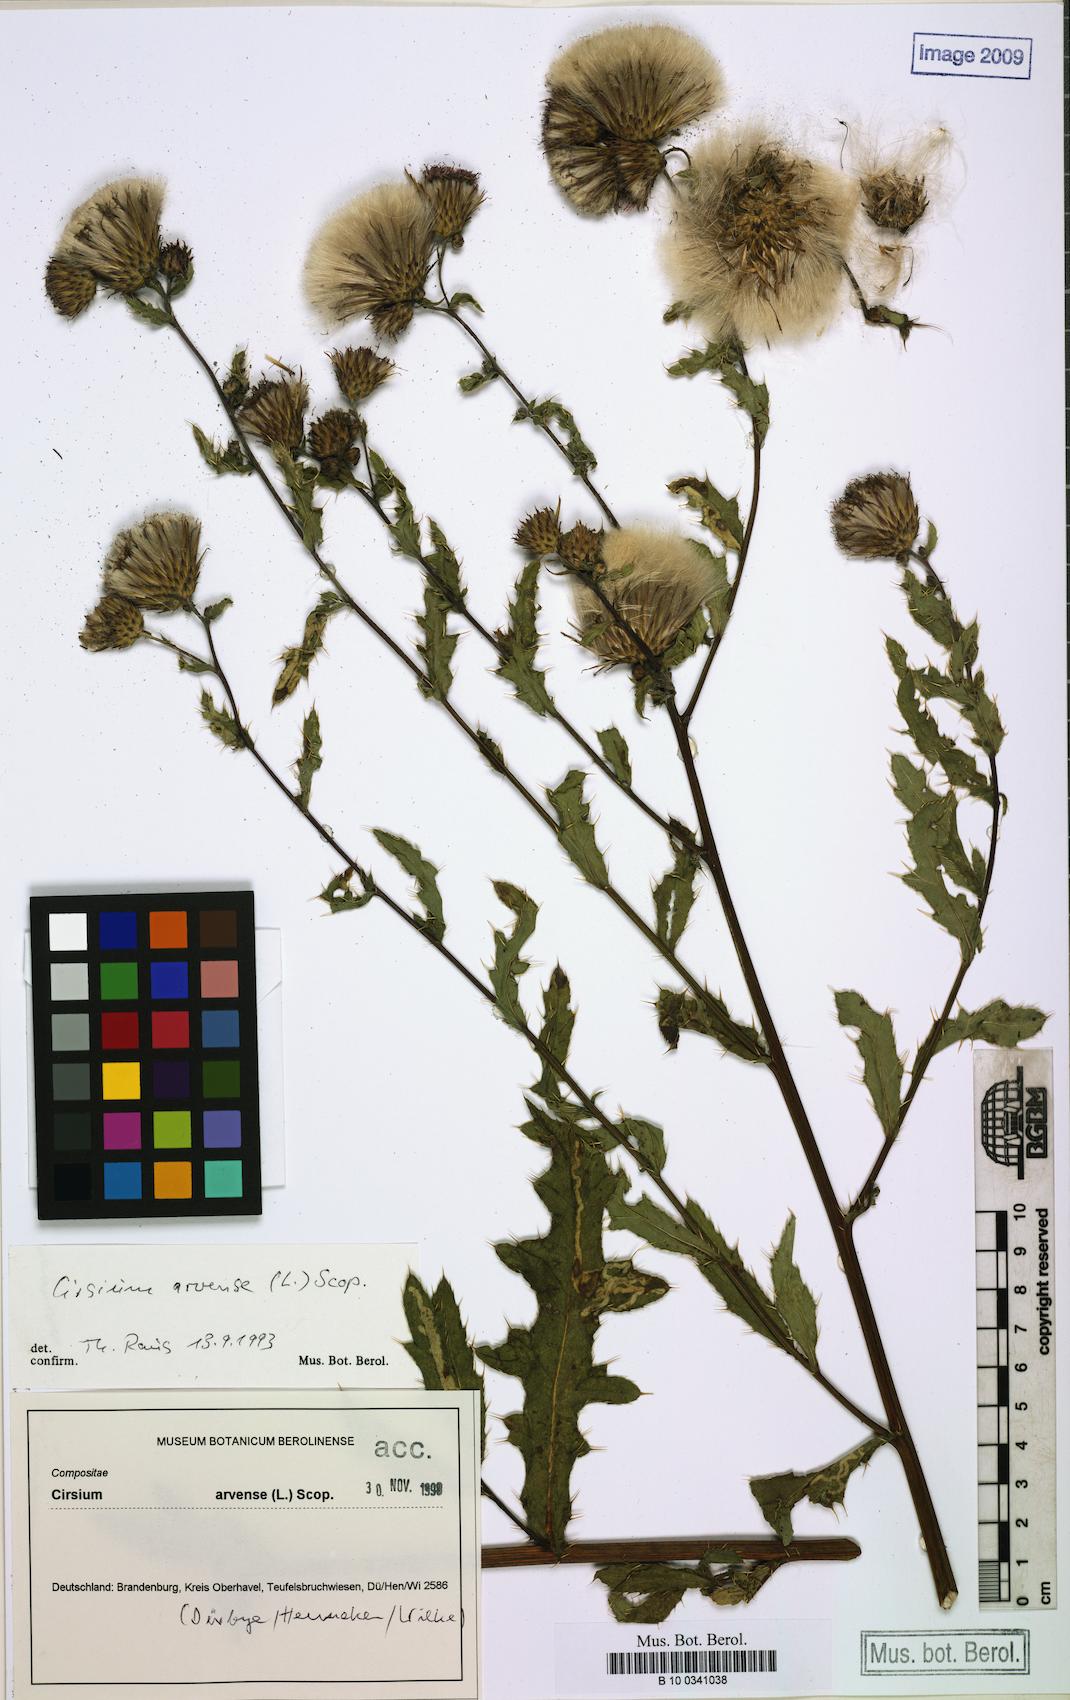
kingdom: Plantae
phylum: Tracheophyta
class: Magnoliopsida
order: Asterales
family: Asteraceae
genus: Cirsium
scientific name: Cirsium arvense
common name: Creeping thistle
